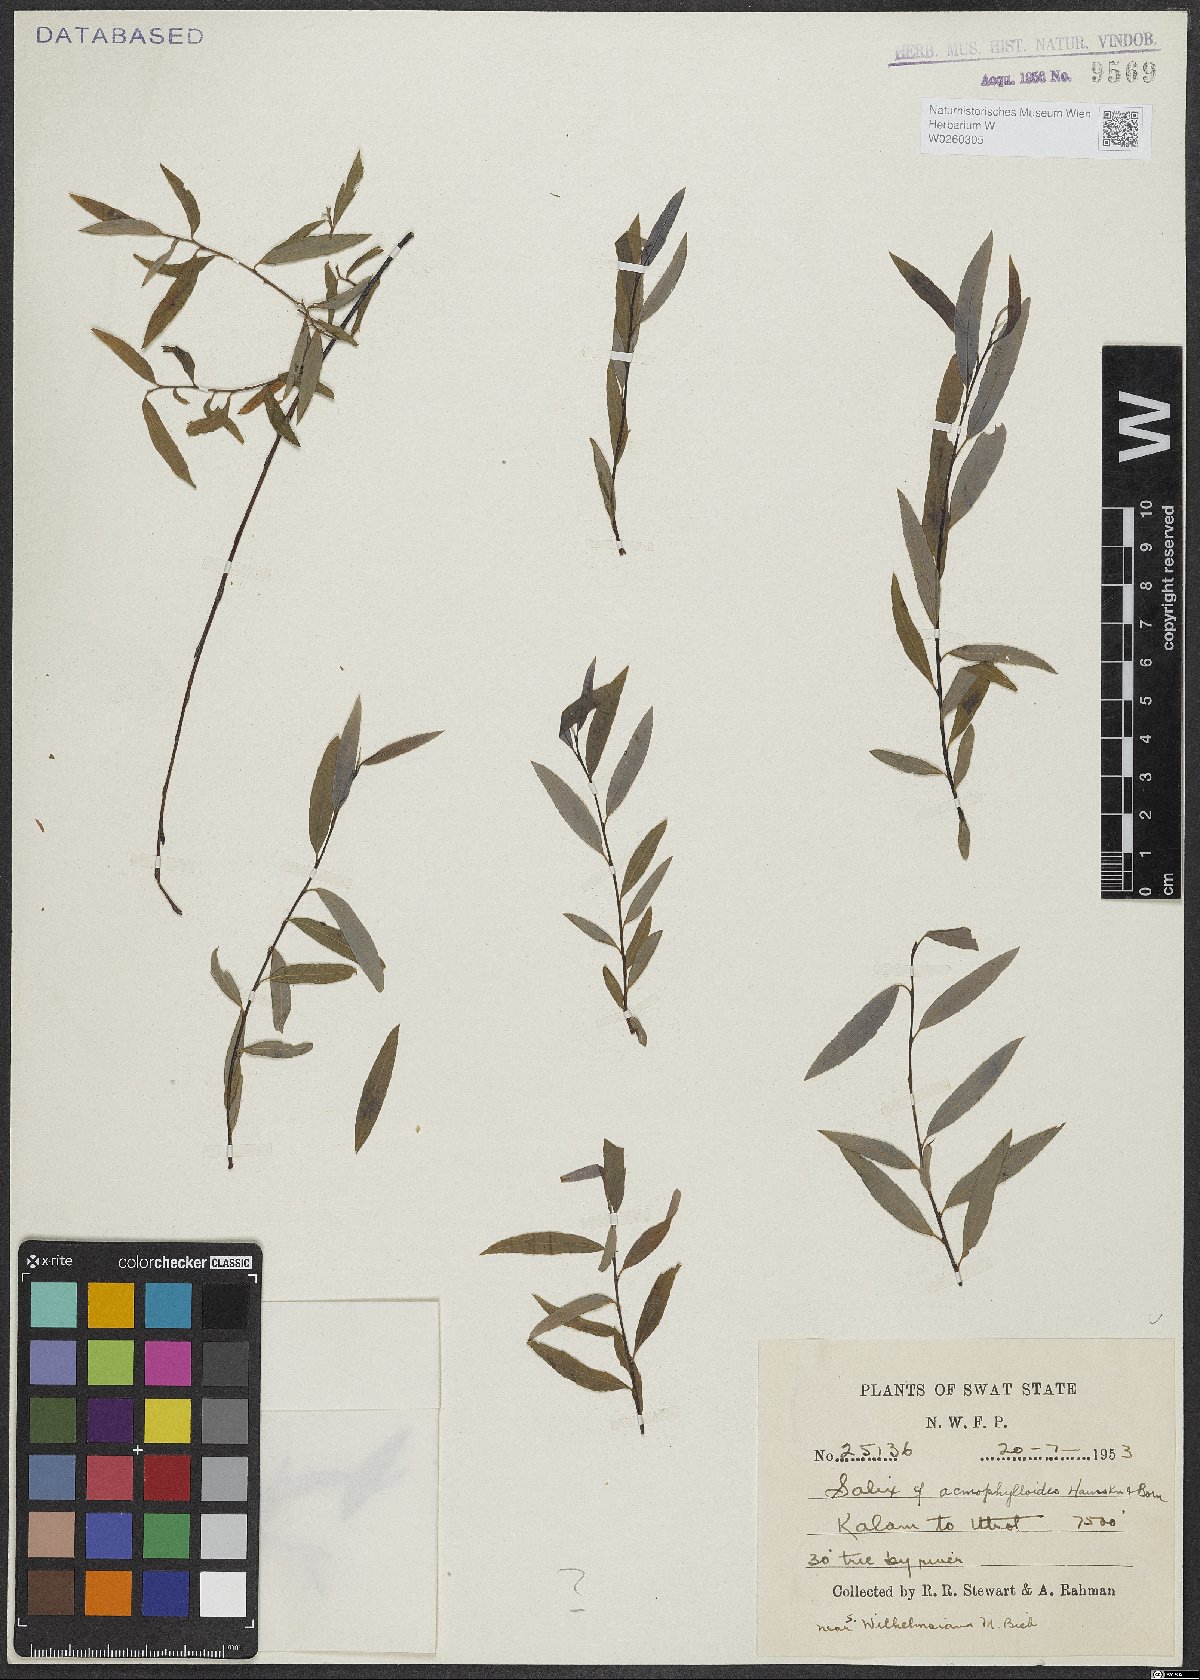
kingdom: Plantae
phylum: Tracheophyta
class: Magnoliopsida
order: Malpighiales
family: Salicaceae
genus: Salix
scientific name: Salix
